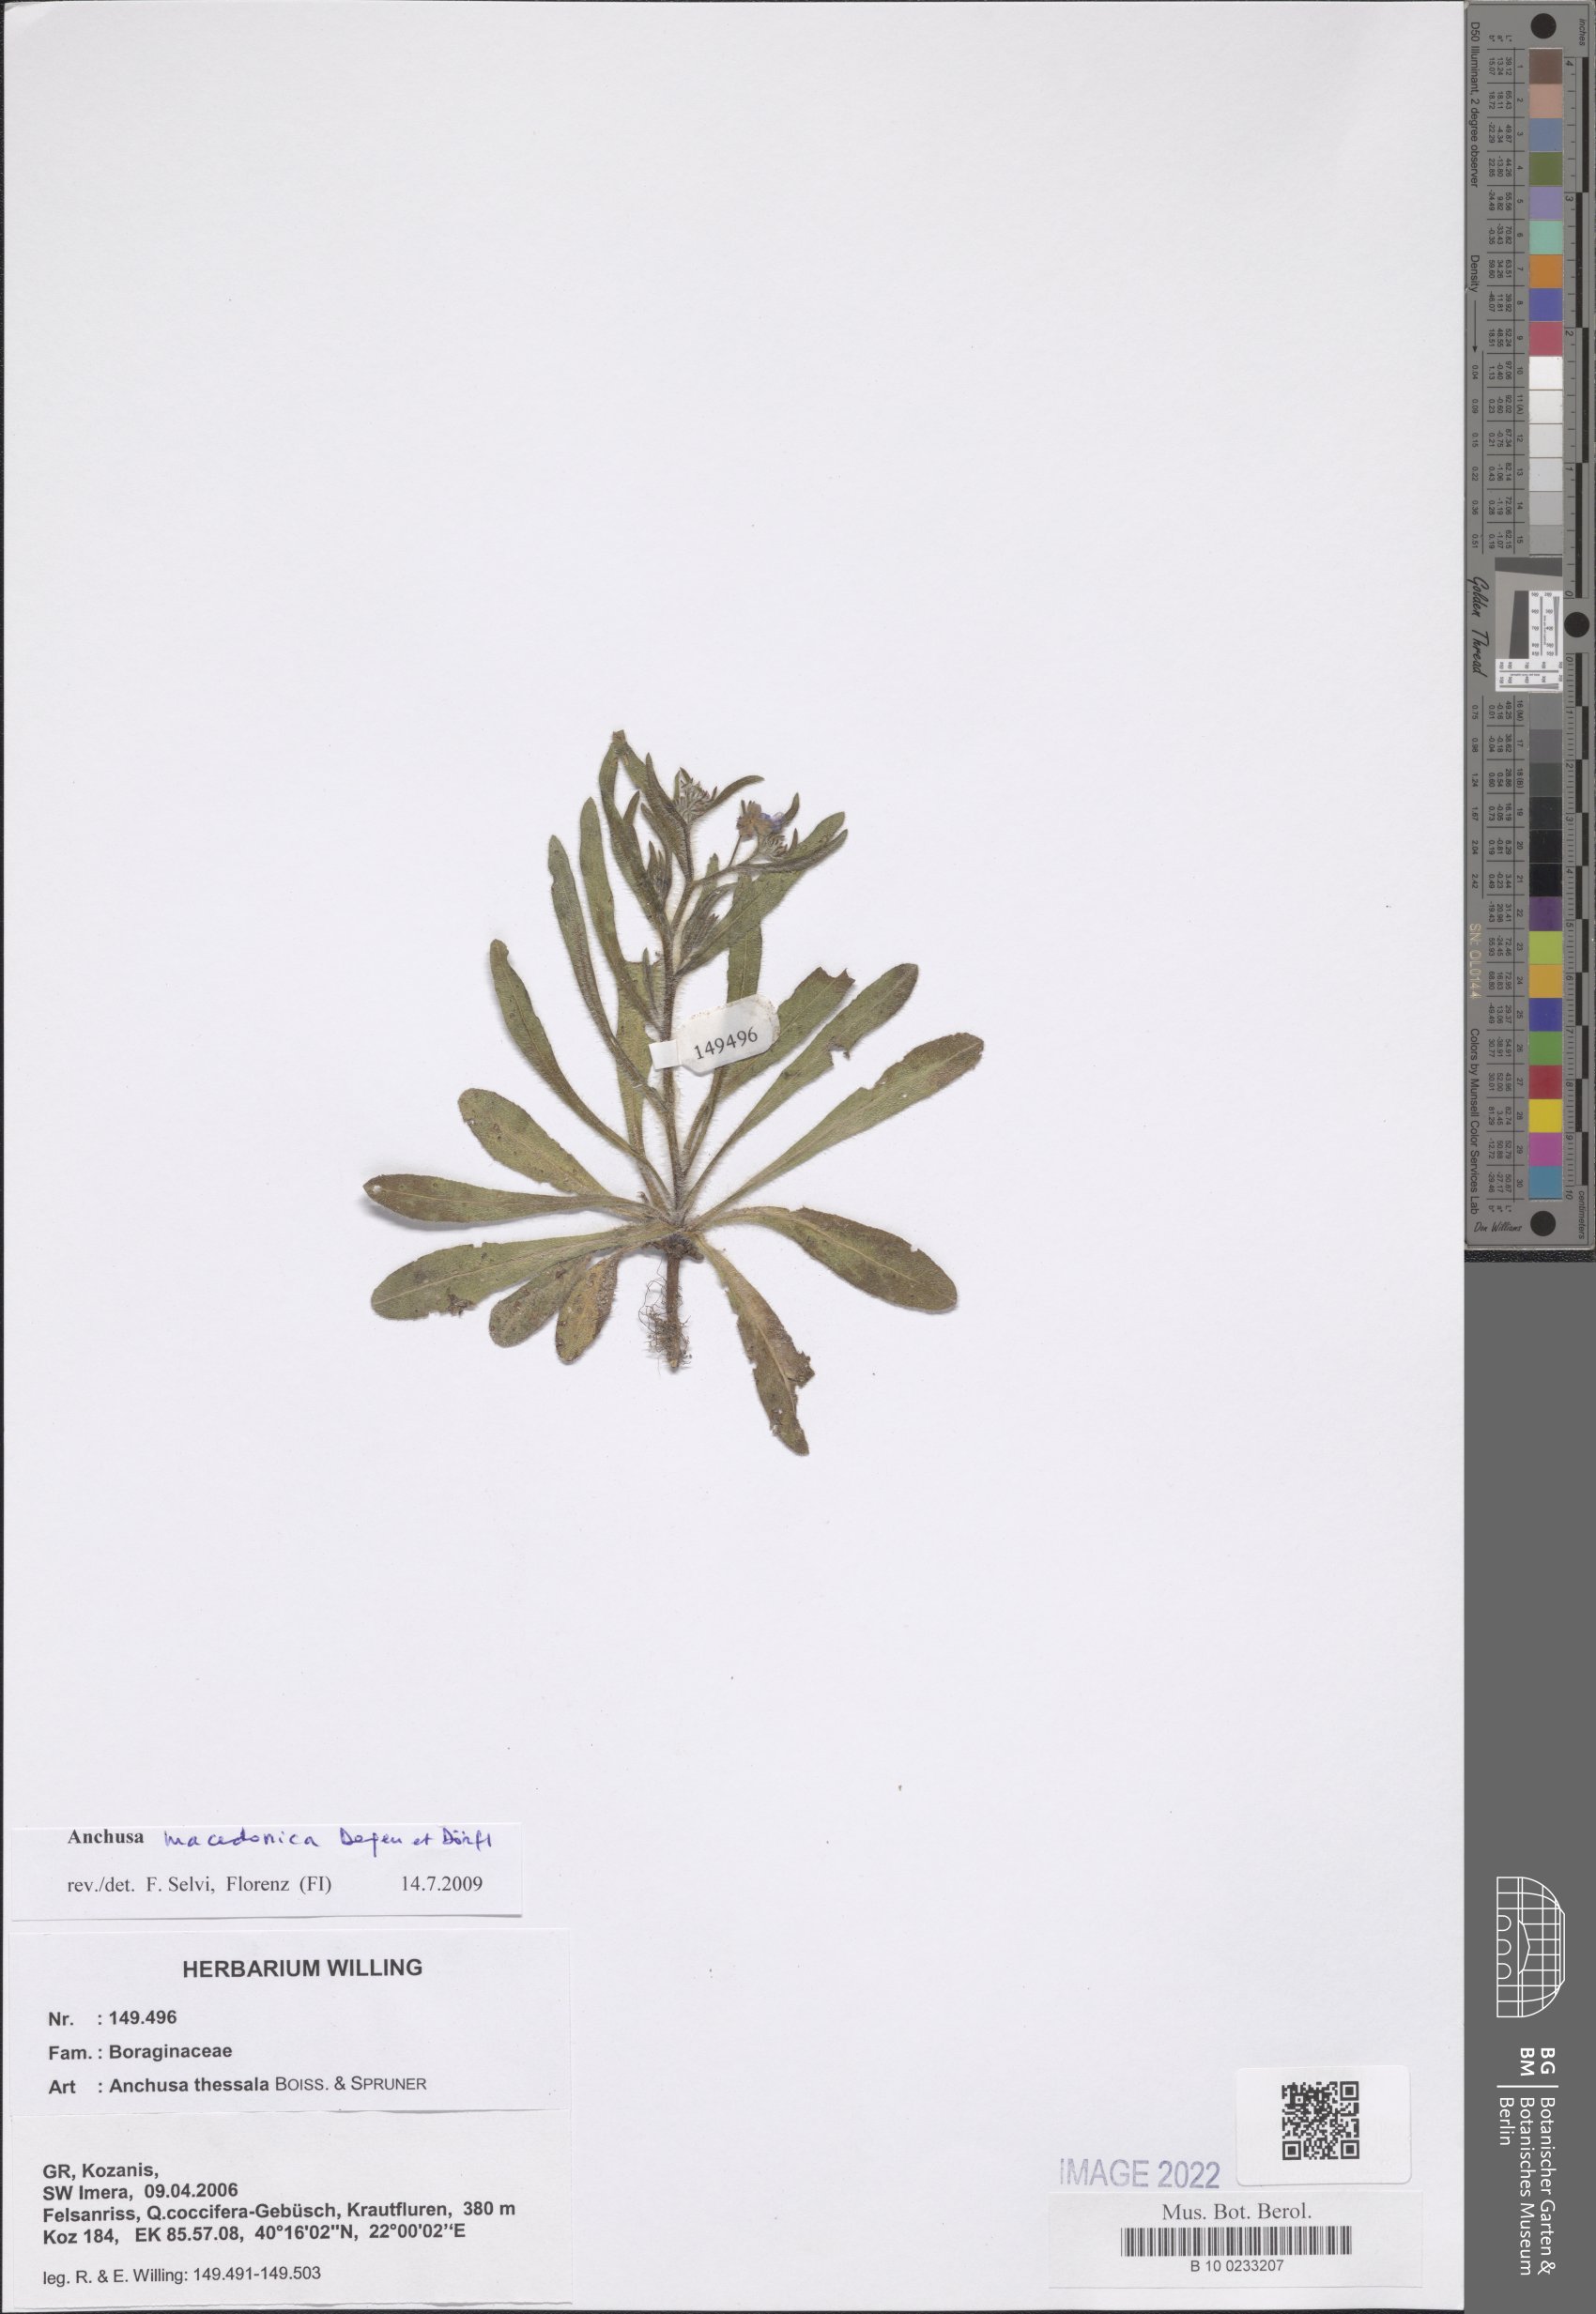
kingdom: Plantae
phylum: Tracheophyta
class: Magnoliopsida
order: Boraginales
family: Boraginaceae
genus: Anchusa
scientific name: Anchusa thessala
